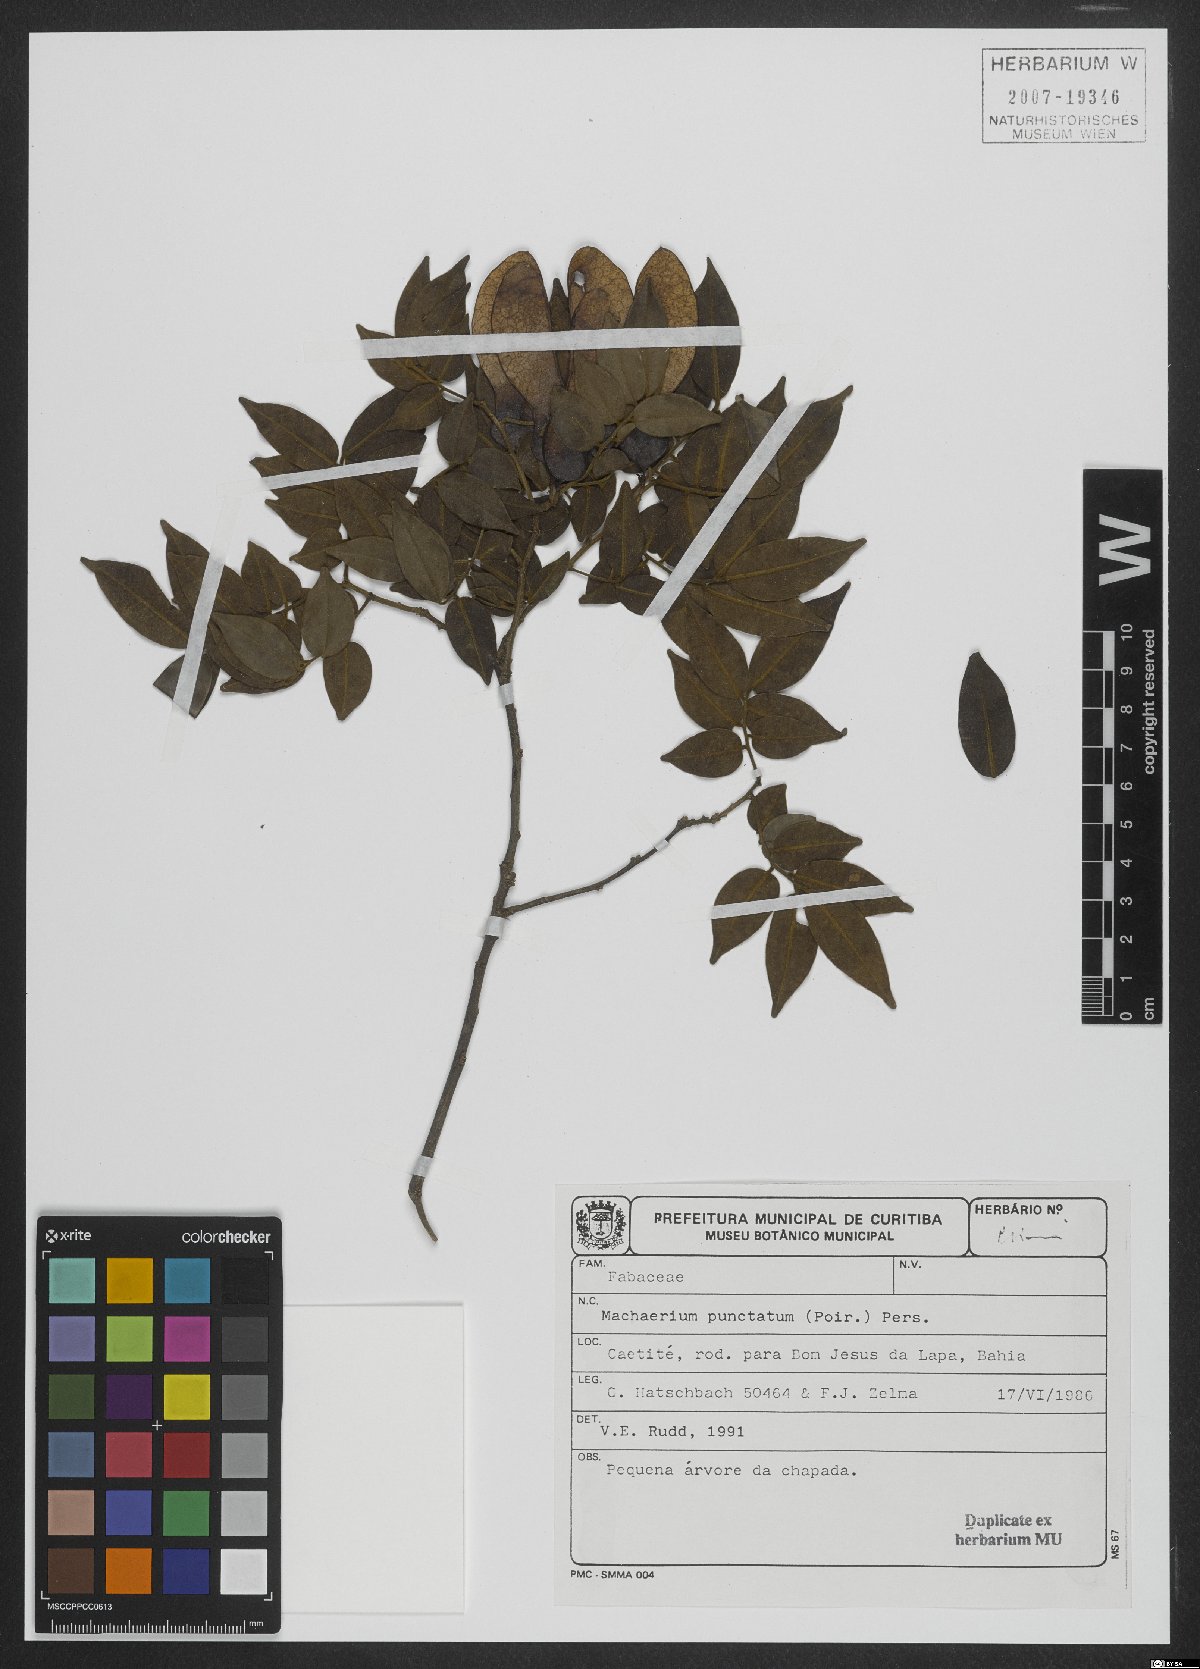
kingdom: Plantae
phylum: Tracheophyta
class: Magnoliopsida
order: Fabales
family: Fabaceae
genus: Machaerium
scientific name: Machaerium punctatum
